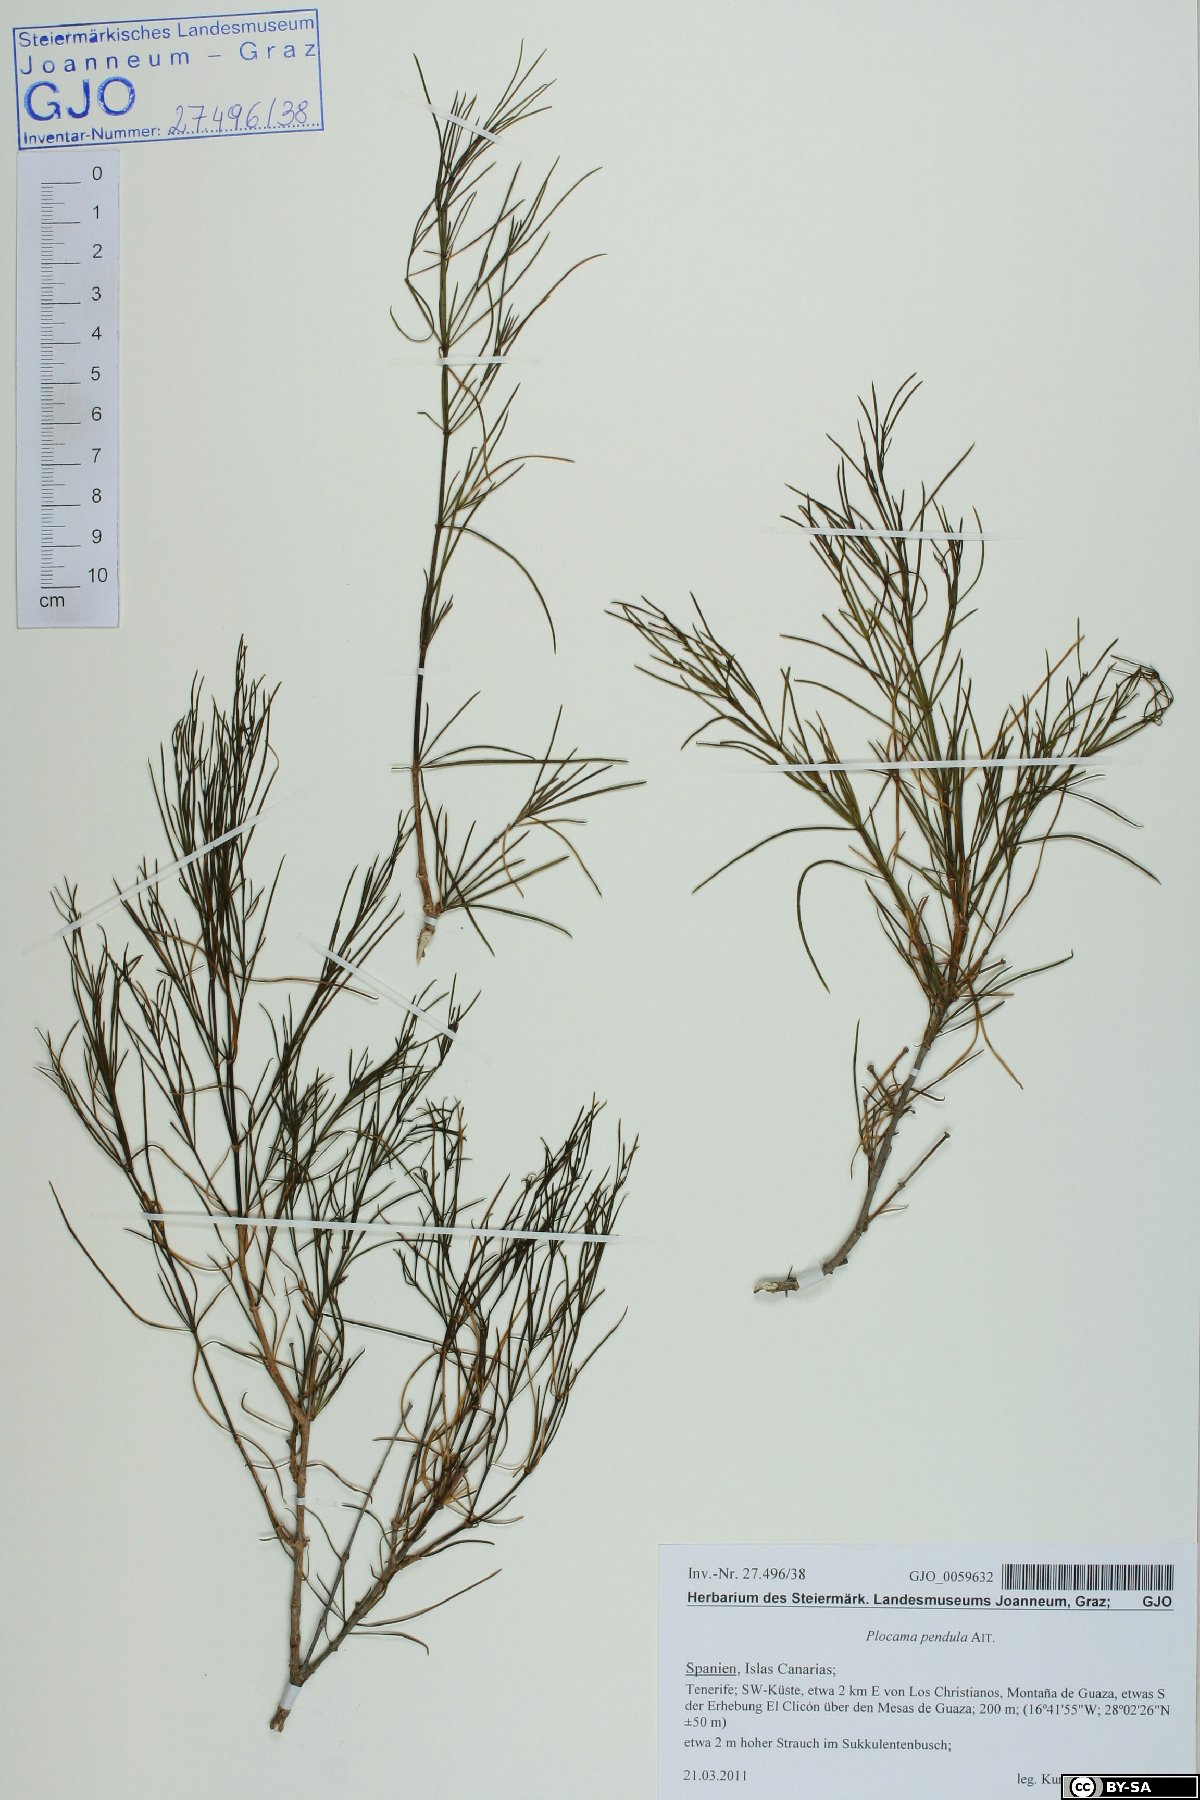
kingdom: Plantae
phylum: Tracheophyta
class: Magnoliopsida
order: Gentianales
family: Rubiaceae
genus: Plocama
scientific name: Plocama pendula
